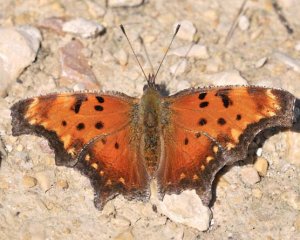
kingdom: Animalia
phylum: Arthropoda
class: Insecta
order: Lepidoptera
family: Nymphalidae
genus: Polygonia
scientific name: Polygonia progne
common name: Gray Comma
